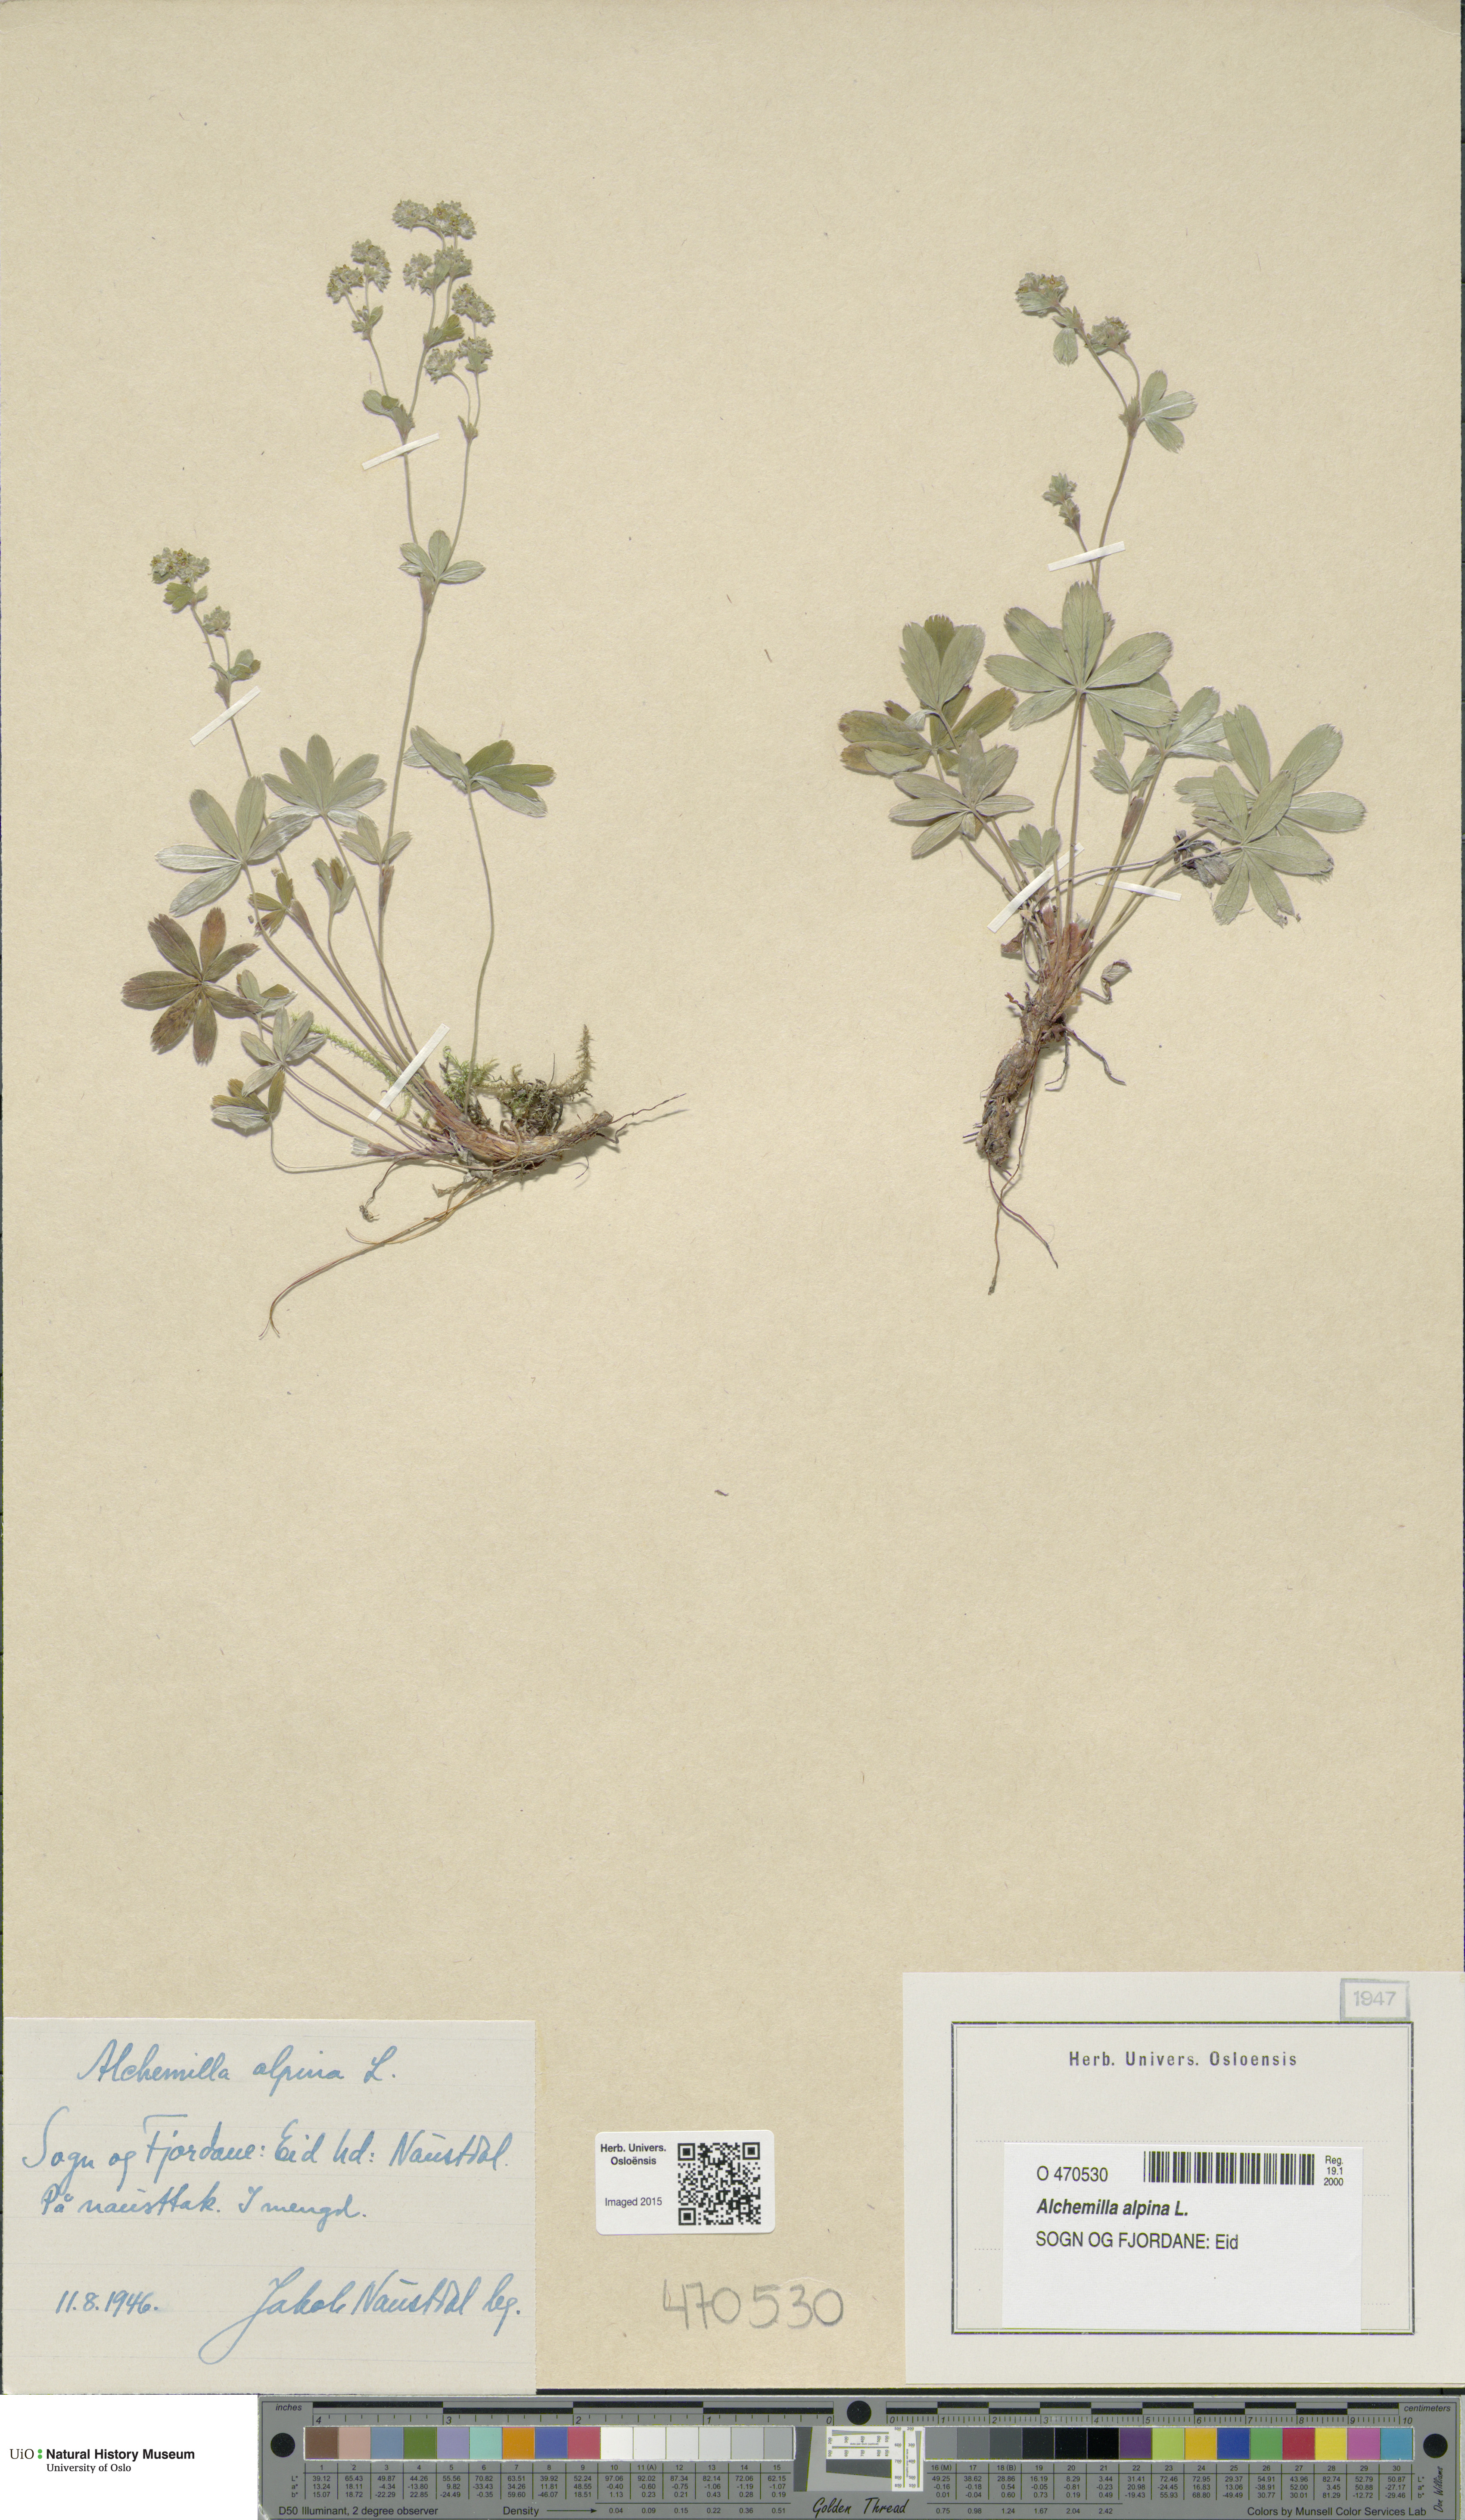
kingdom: Plantae
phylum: Tracheophyta
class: Magnoliopsida
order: Rosales
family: Rosaceae
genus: Alchemilla
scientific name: Alchemilla alpina
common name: Alpine lady's-mantle
